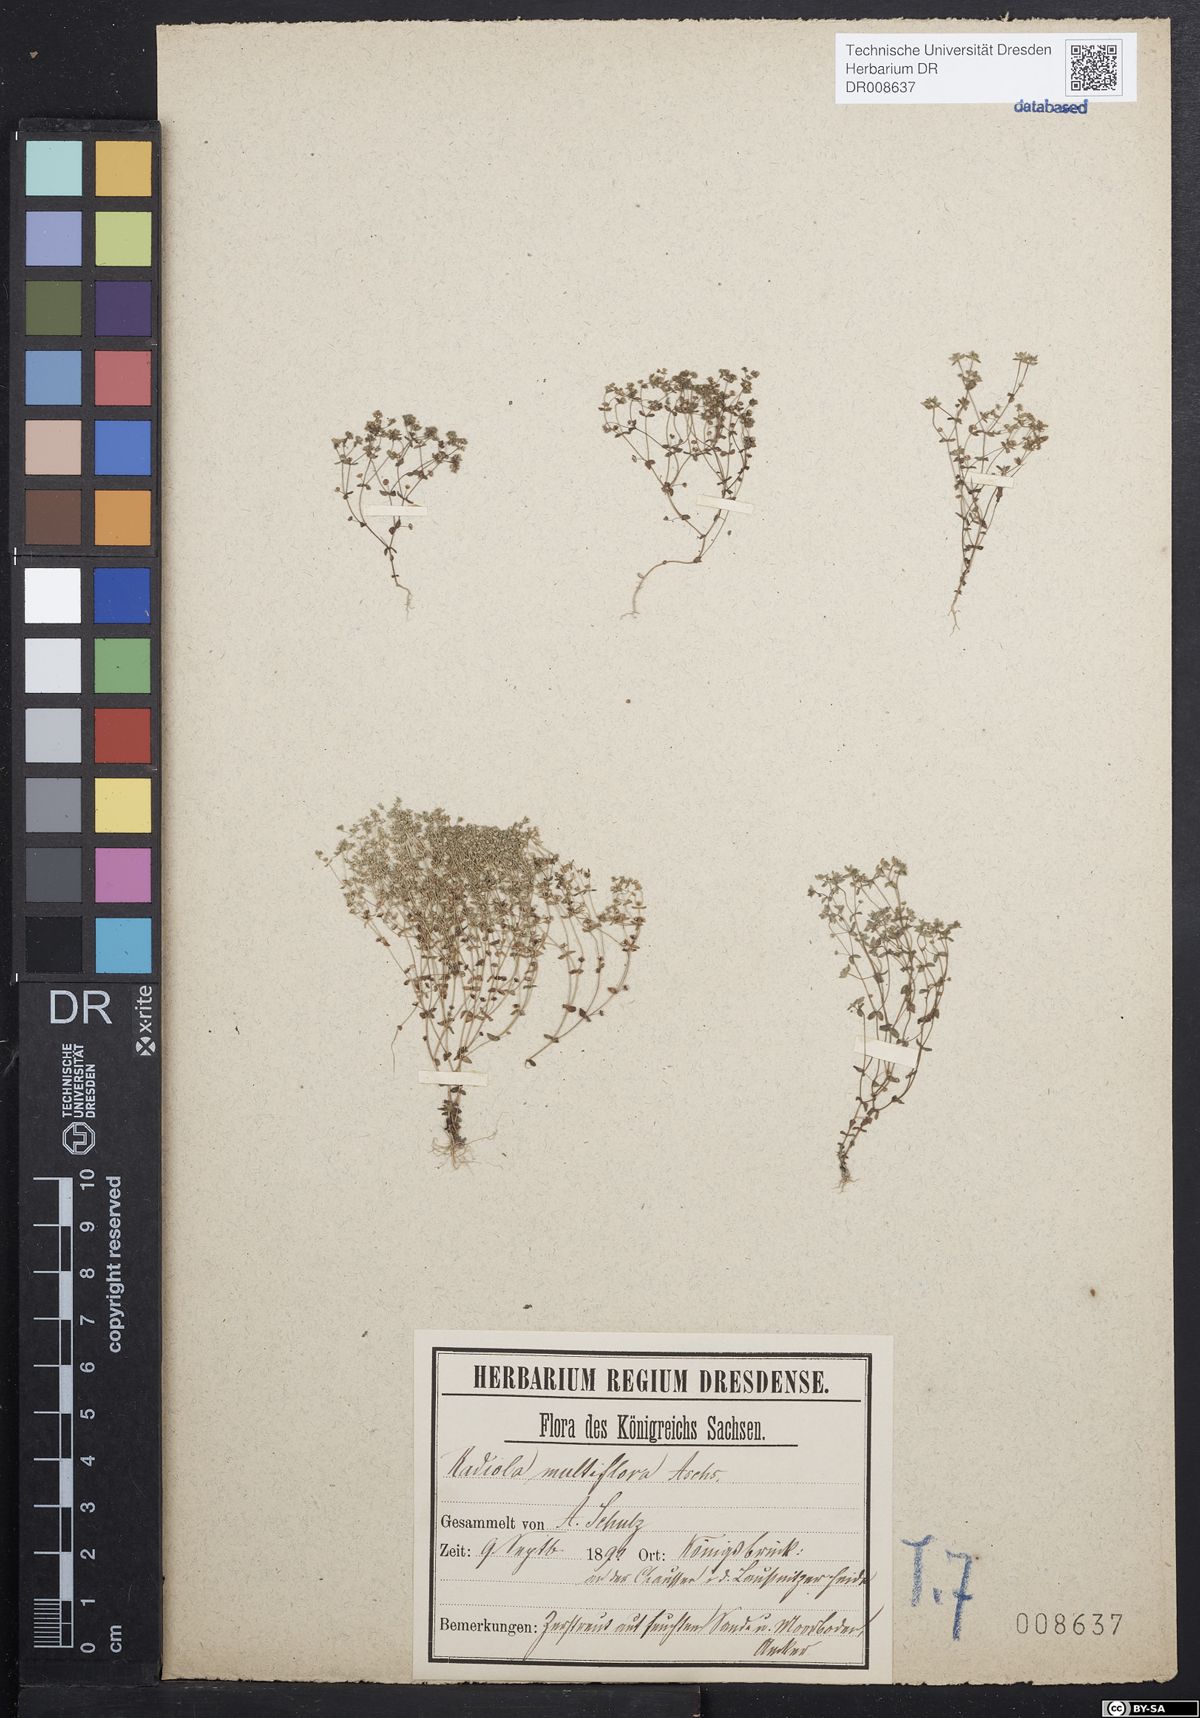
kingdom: Plantae
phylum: Tracheophyta
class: Magnoliopsida
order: Malpighiales
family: Linaceae
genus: Radiola
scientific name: Radiola linoides
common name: Allseed
